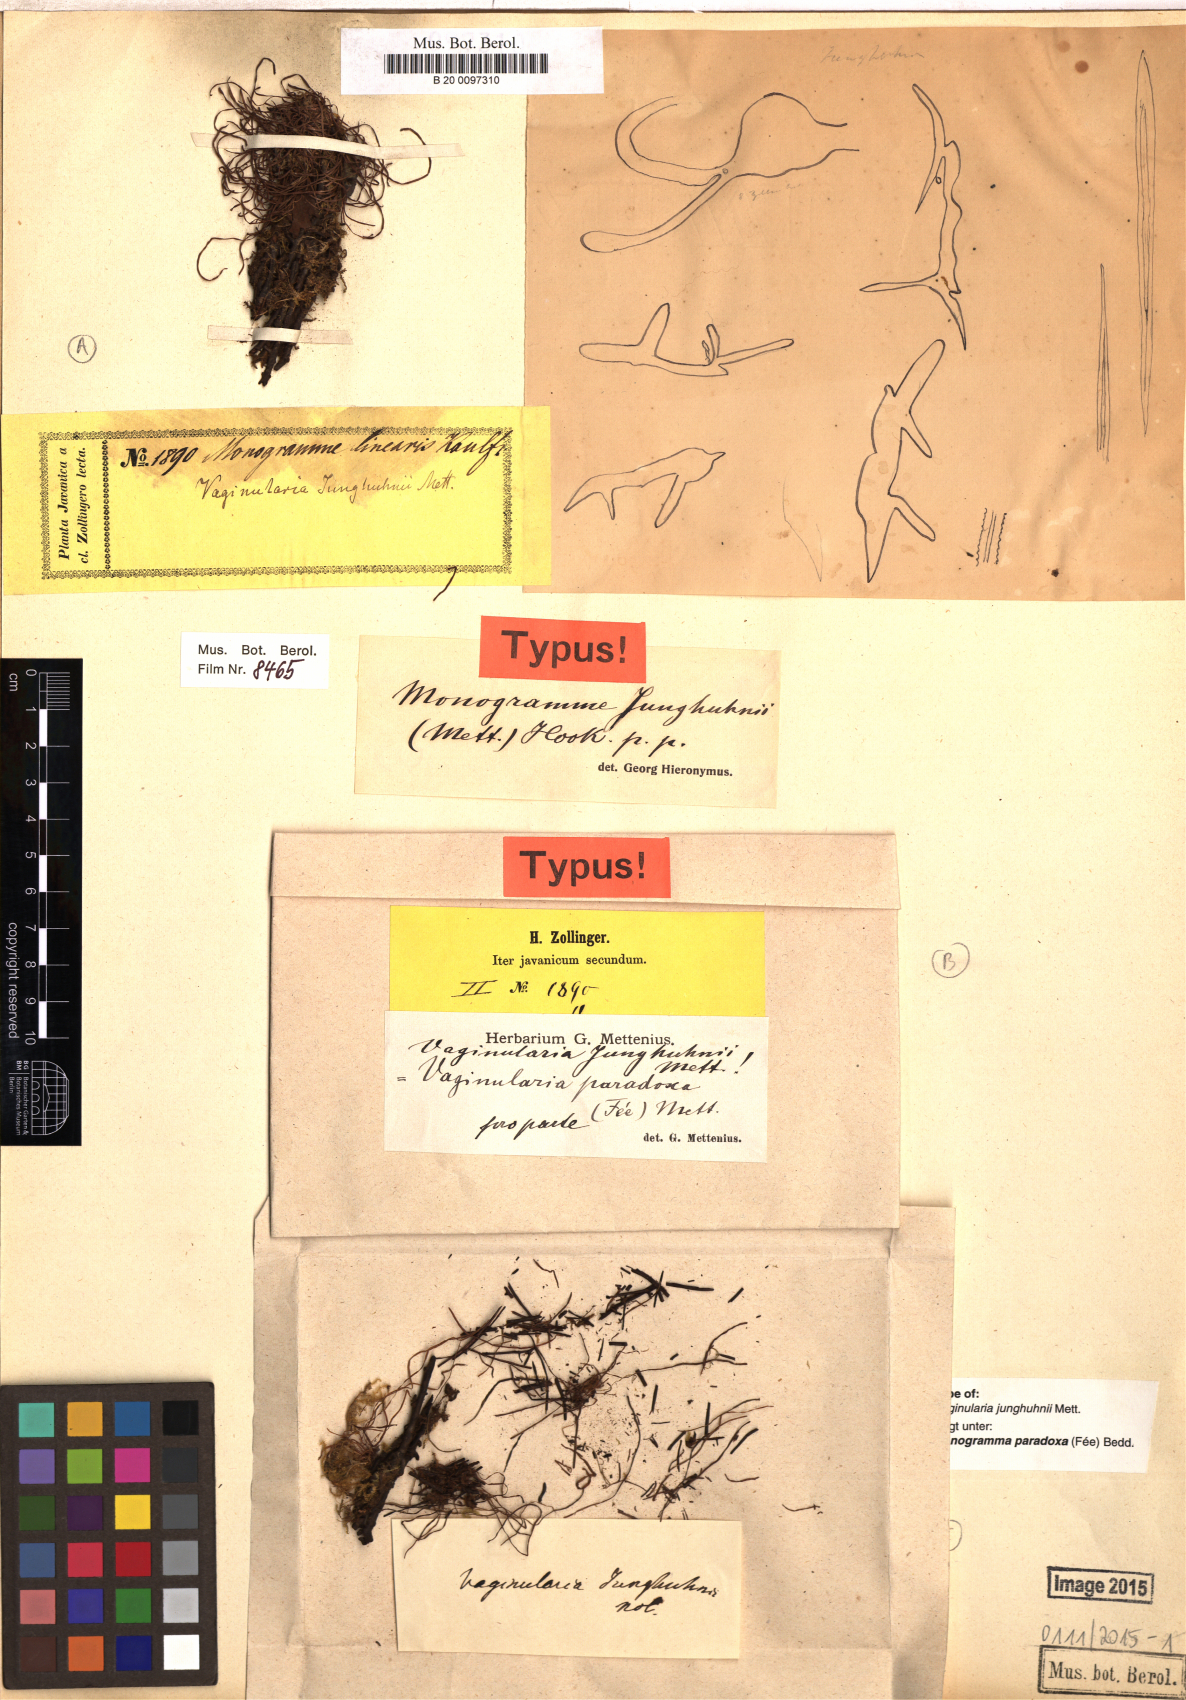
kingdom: Plantae
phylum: Tracheophyta
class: Polypodiopsida
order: Polypodiales
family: Pteridaceae
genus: Vaginularia
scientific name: Vaginularia paradoxa
